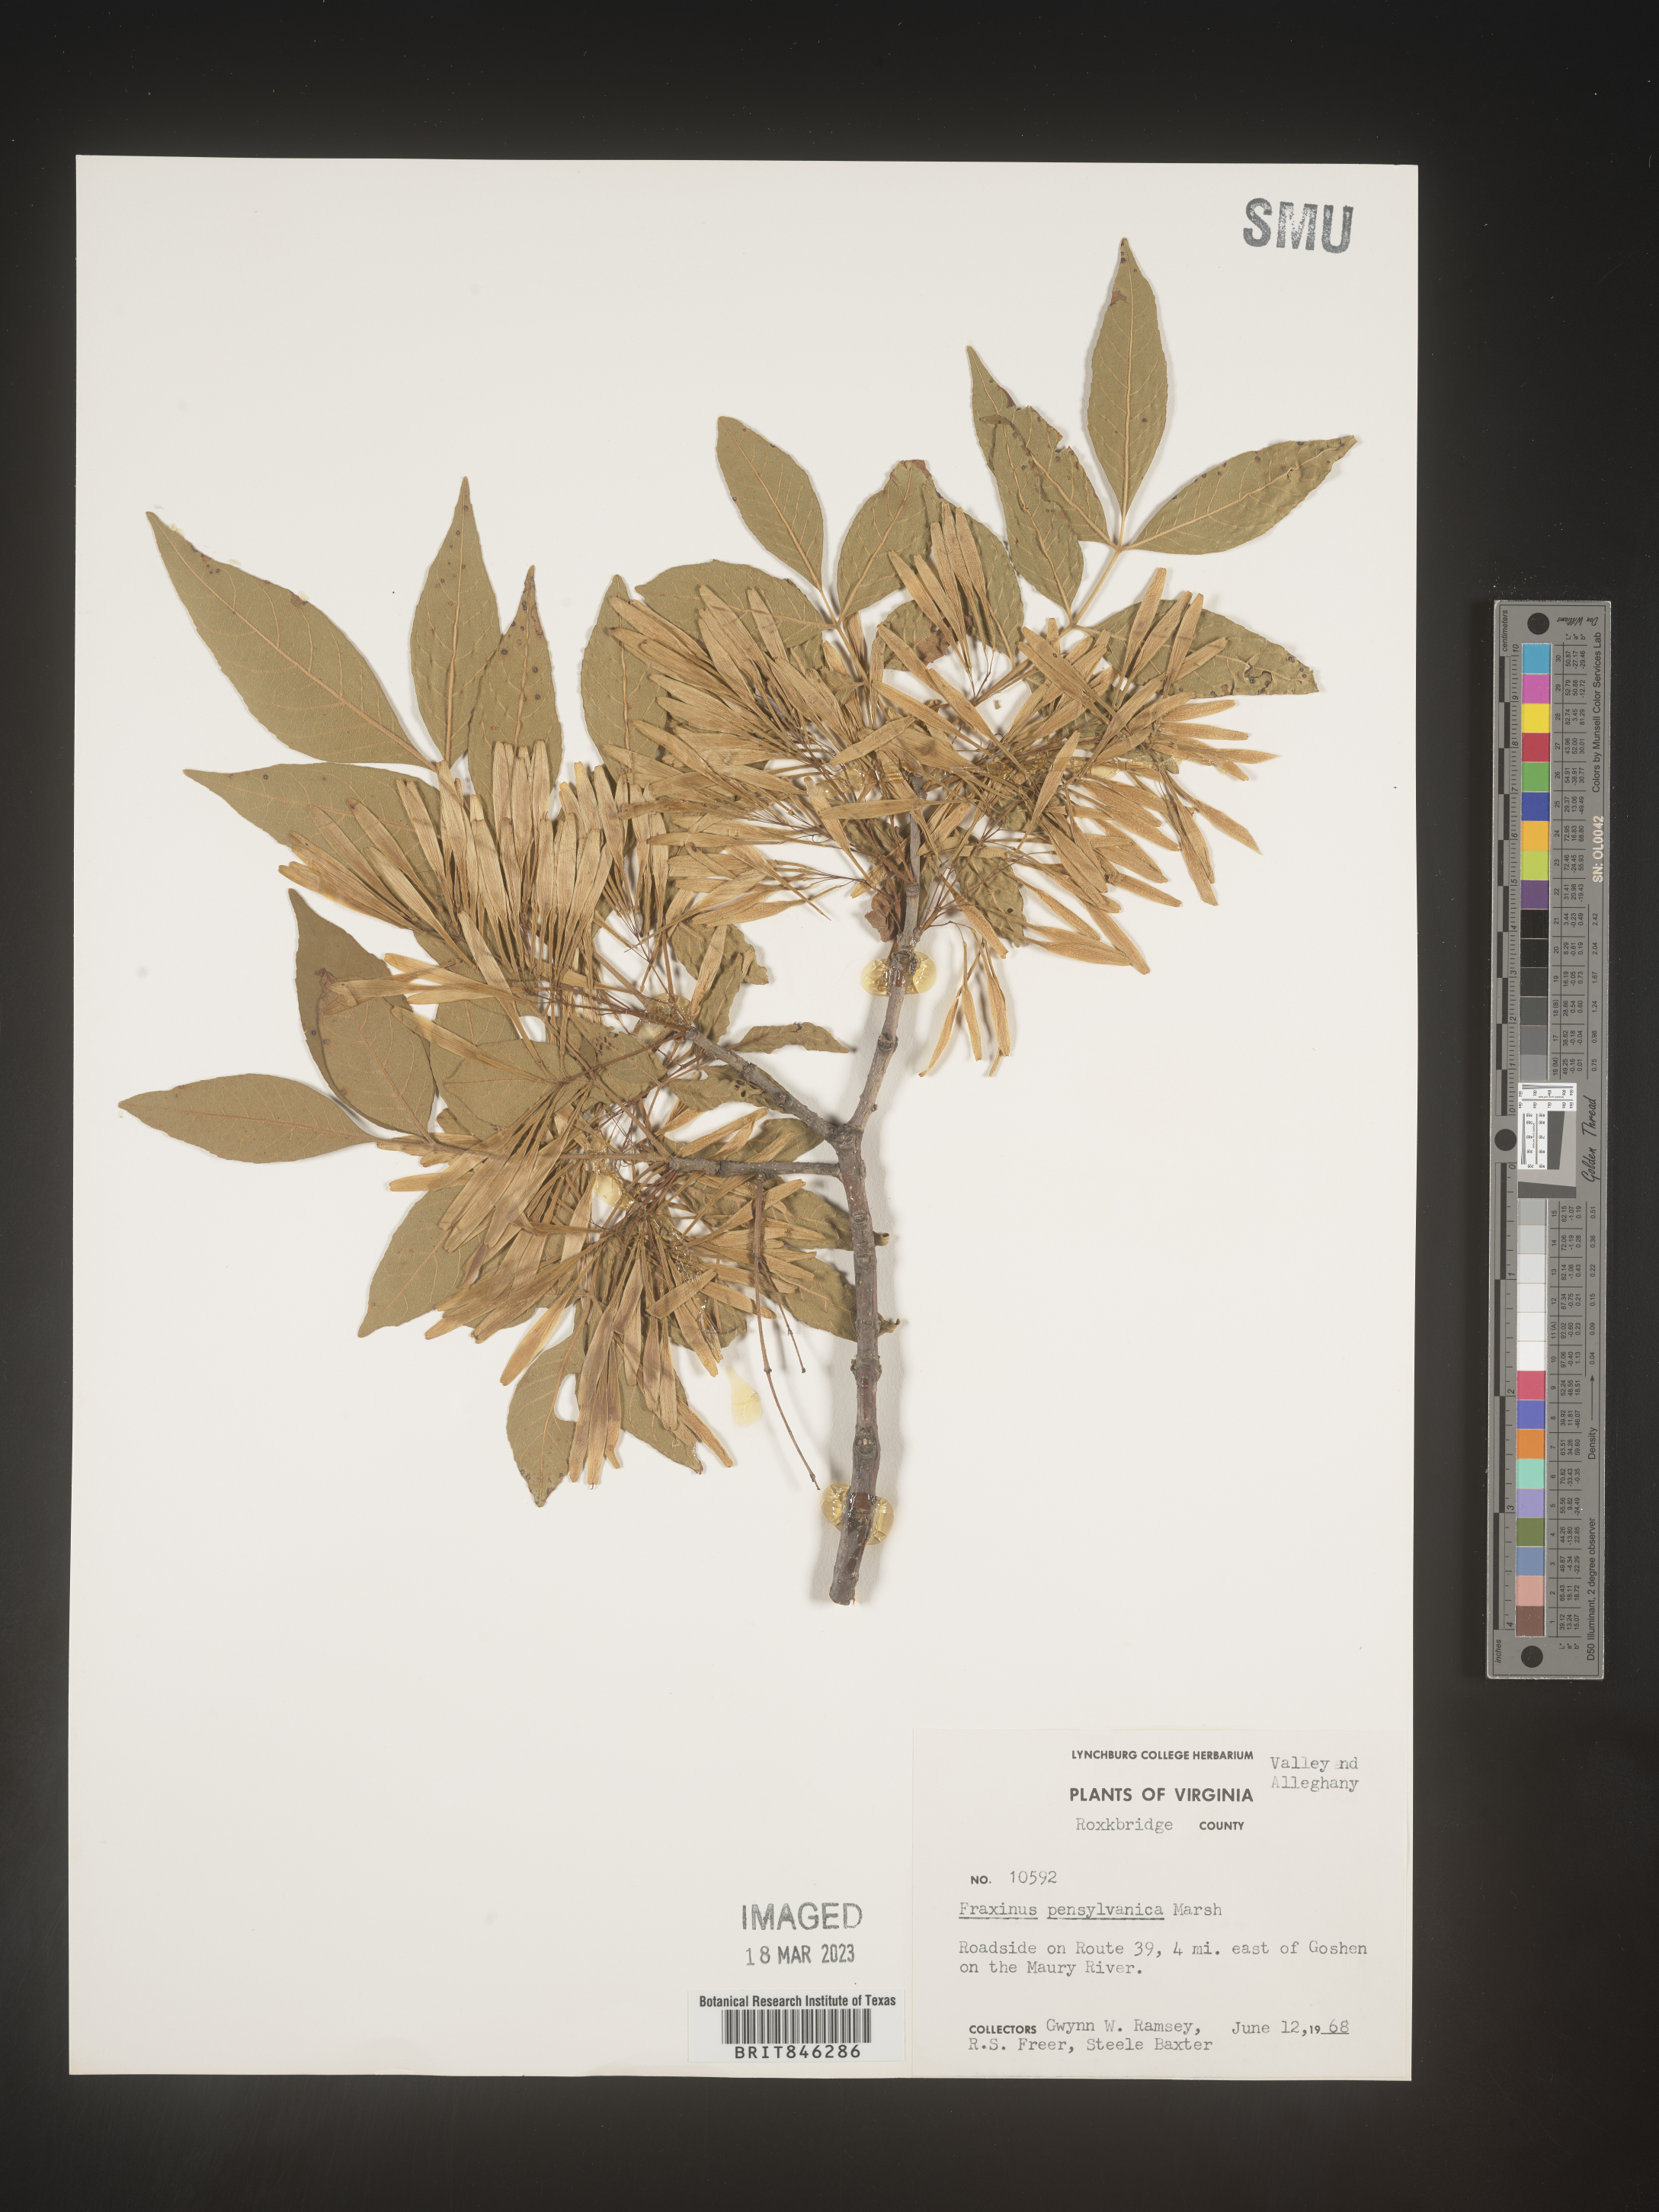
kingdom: Plantae
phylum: Tracheophyta
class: Magnoliopsida
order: Lamiales
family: Oleaceae
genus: Fraxinus
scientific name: Fraxinus pennsylvanica
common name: Green ash
